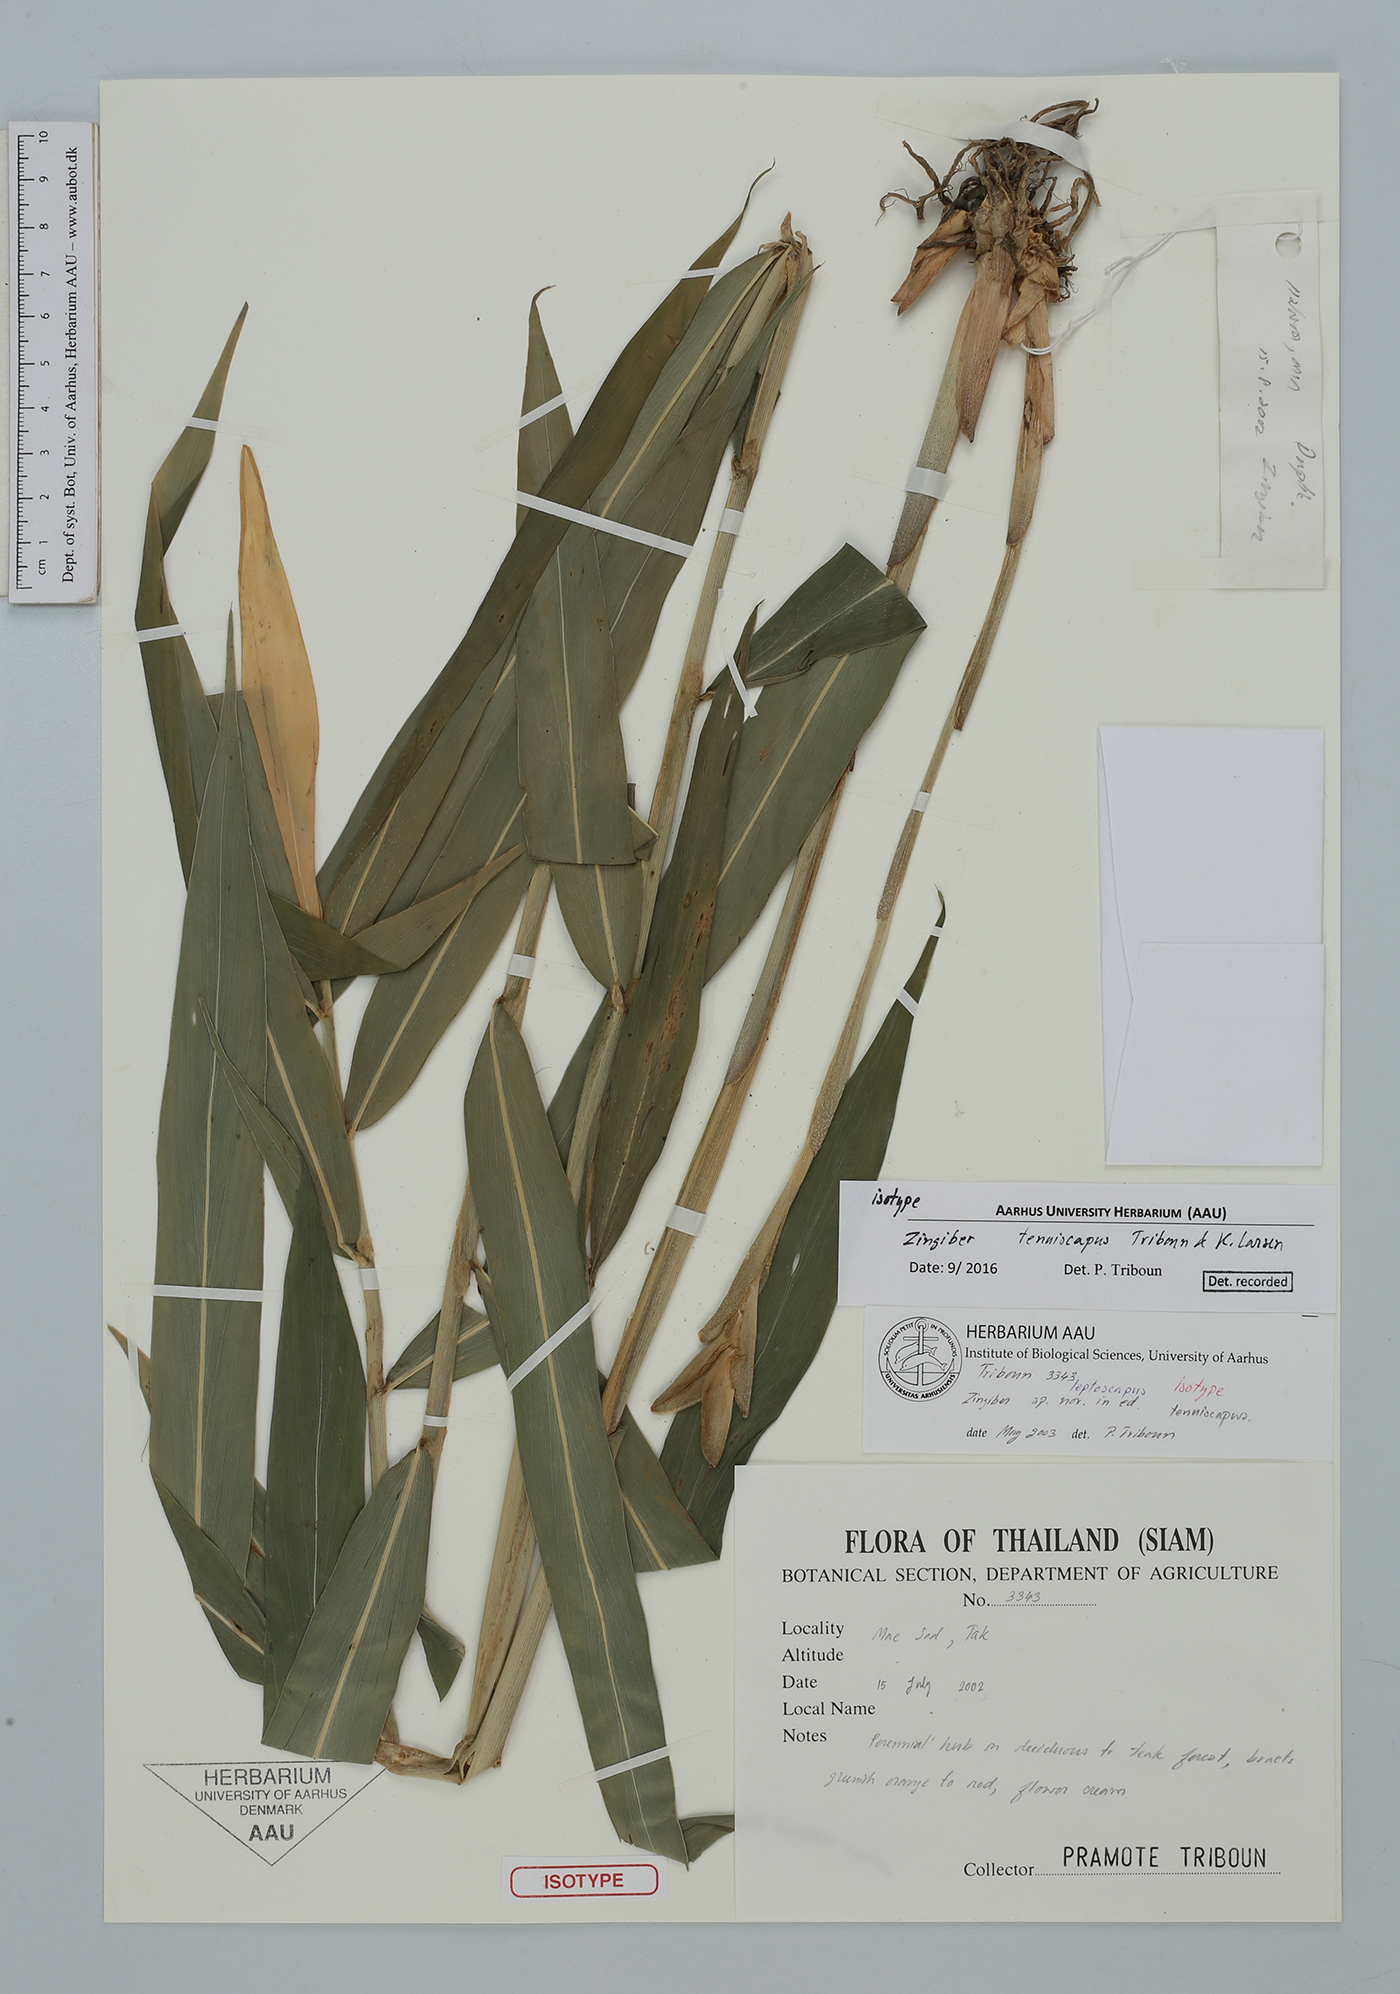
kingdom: Plantae
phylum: Tracheophyta
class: Liliopsida
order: Zingiberales
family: Zingiberaceae
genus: Zingiber
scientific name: Zingiber tenuiscapus
